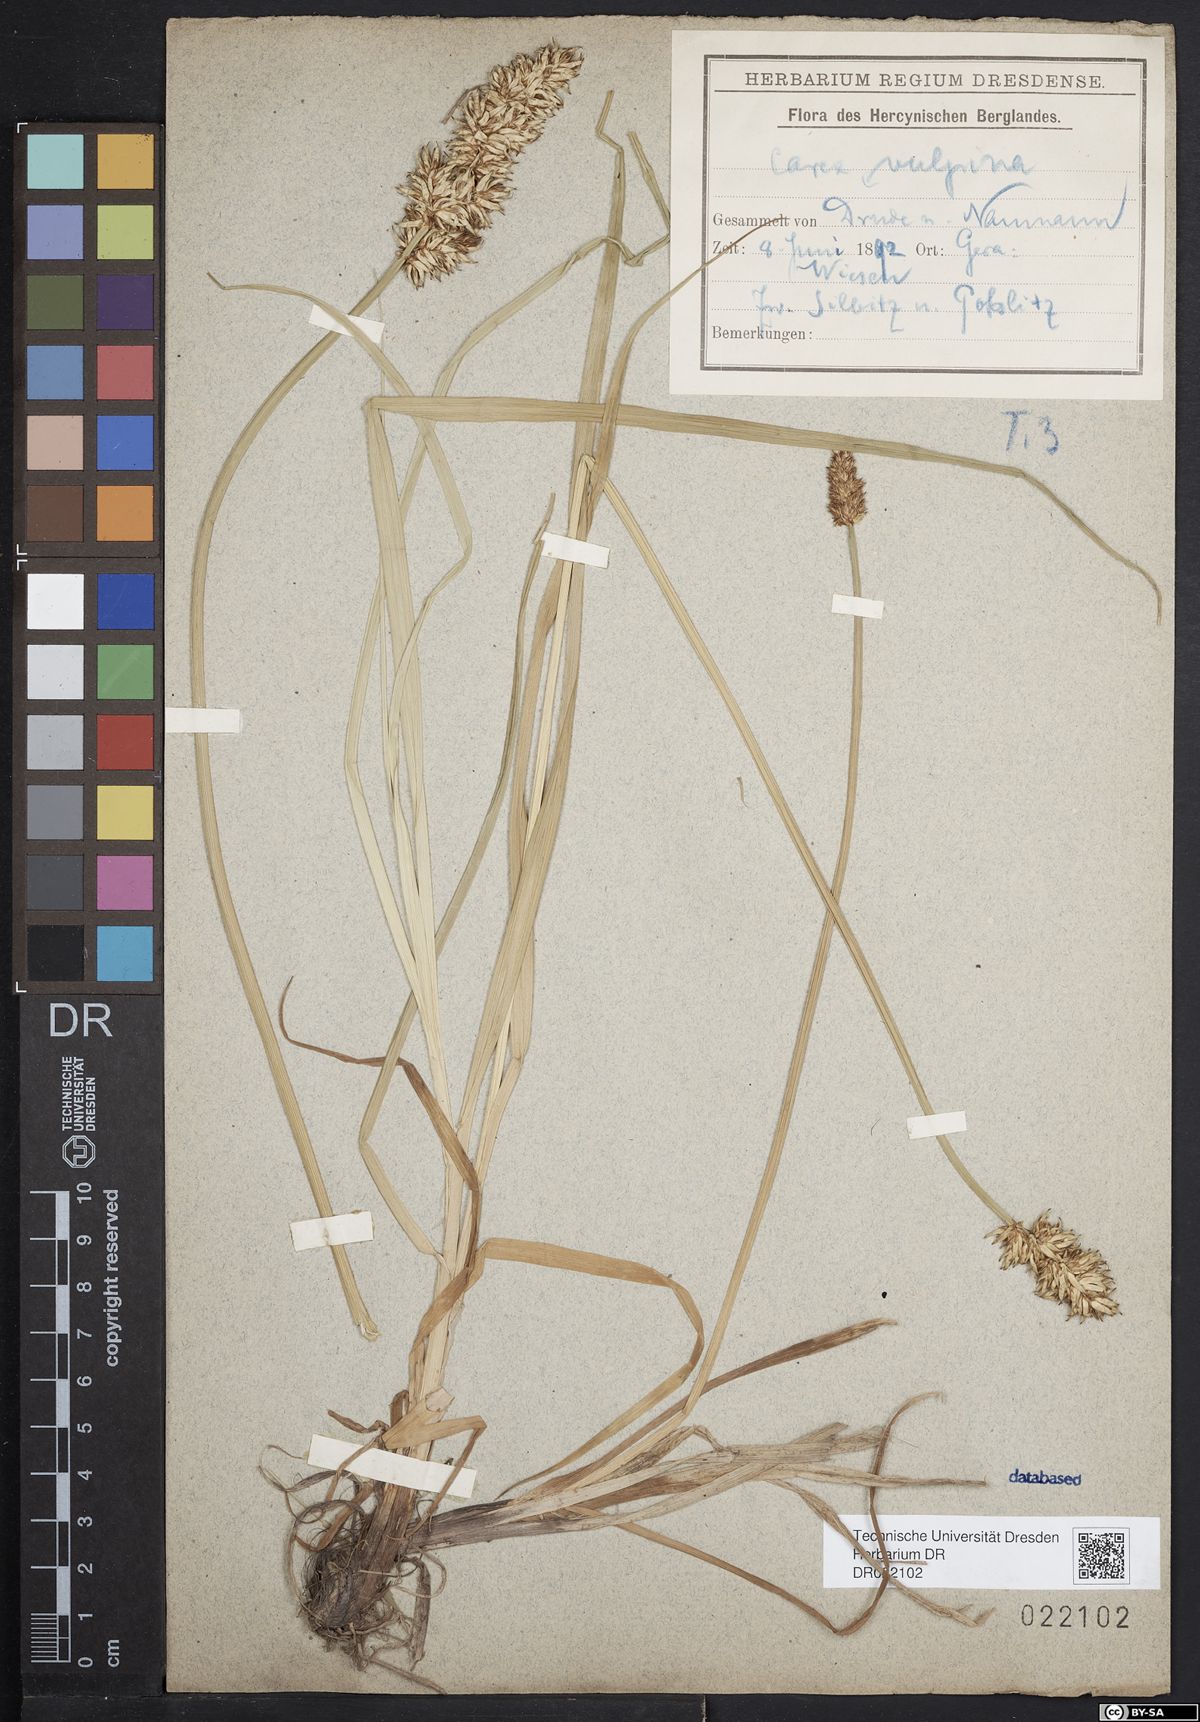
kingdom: Plantae
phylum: Tracheophyta
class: Liliopsida
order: Poales
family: Cyperaceae
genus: Carex
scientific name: Carex vulpina
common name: True fox-sedge
